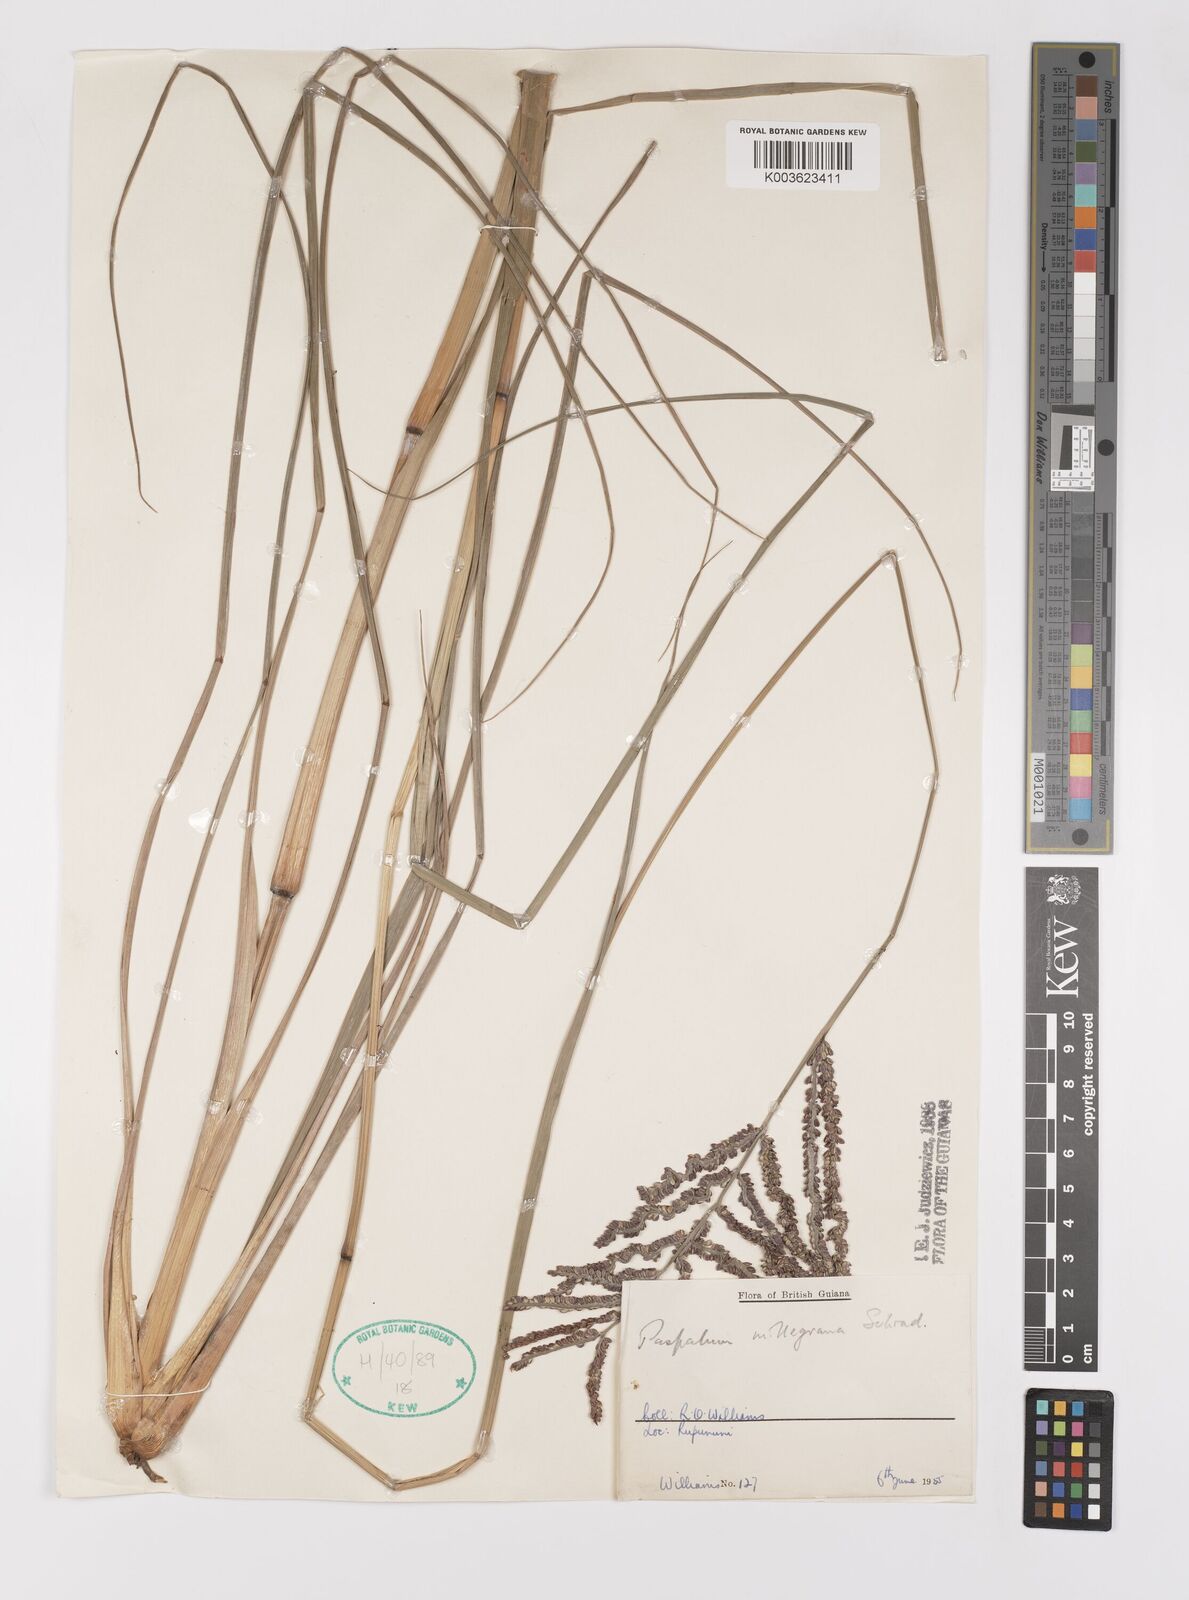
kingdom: Plantae
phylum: Tracheophyta
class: Liliopsida
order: Poales
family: Poaceae
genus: Paspalum
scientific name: Paspalum millegranum
